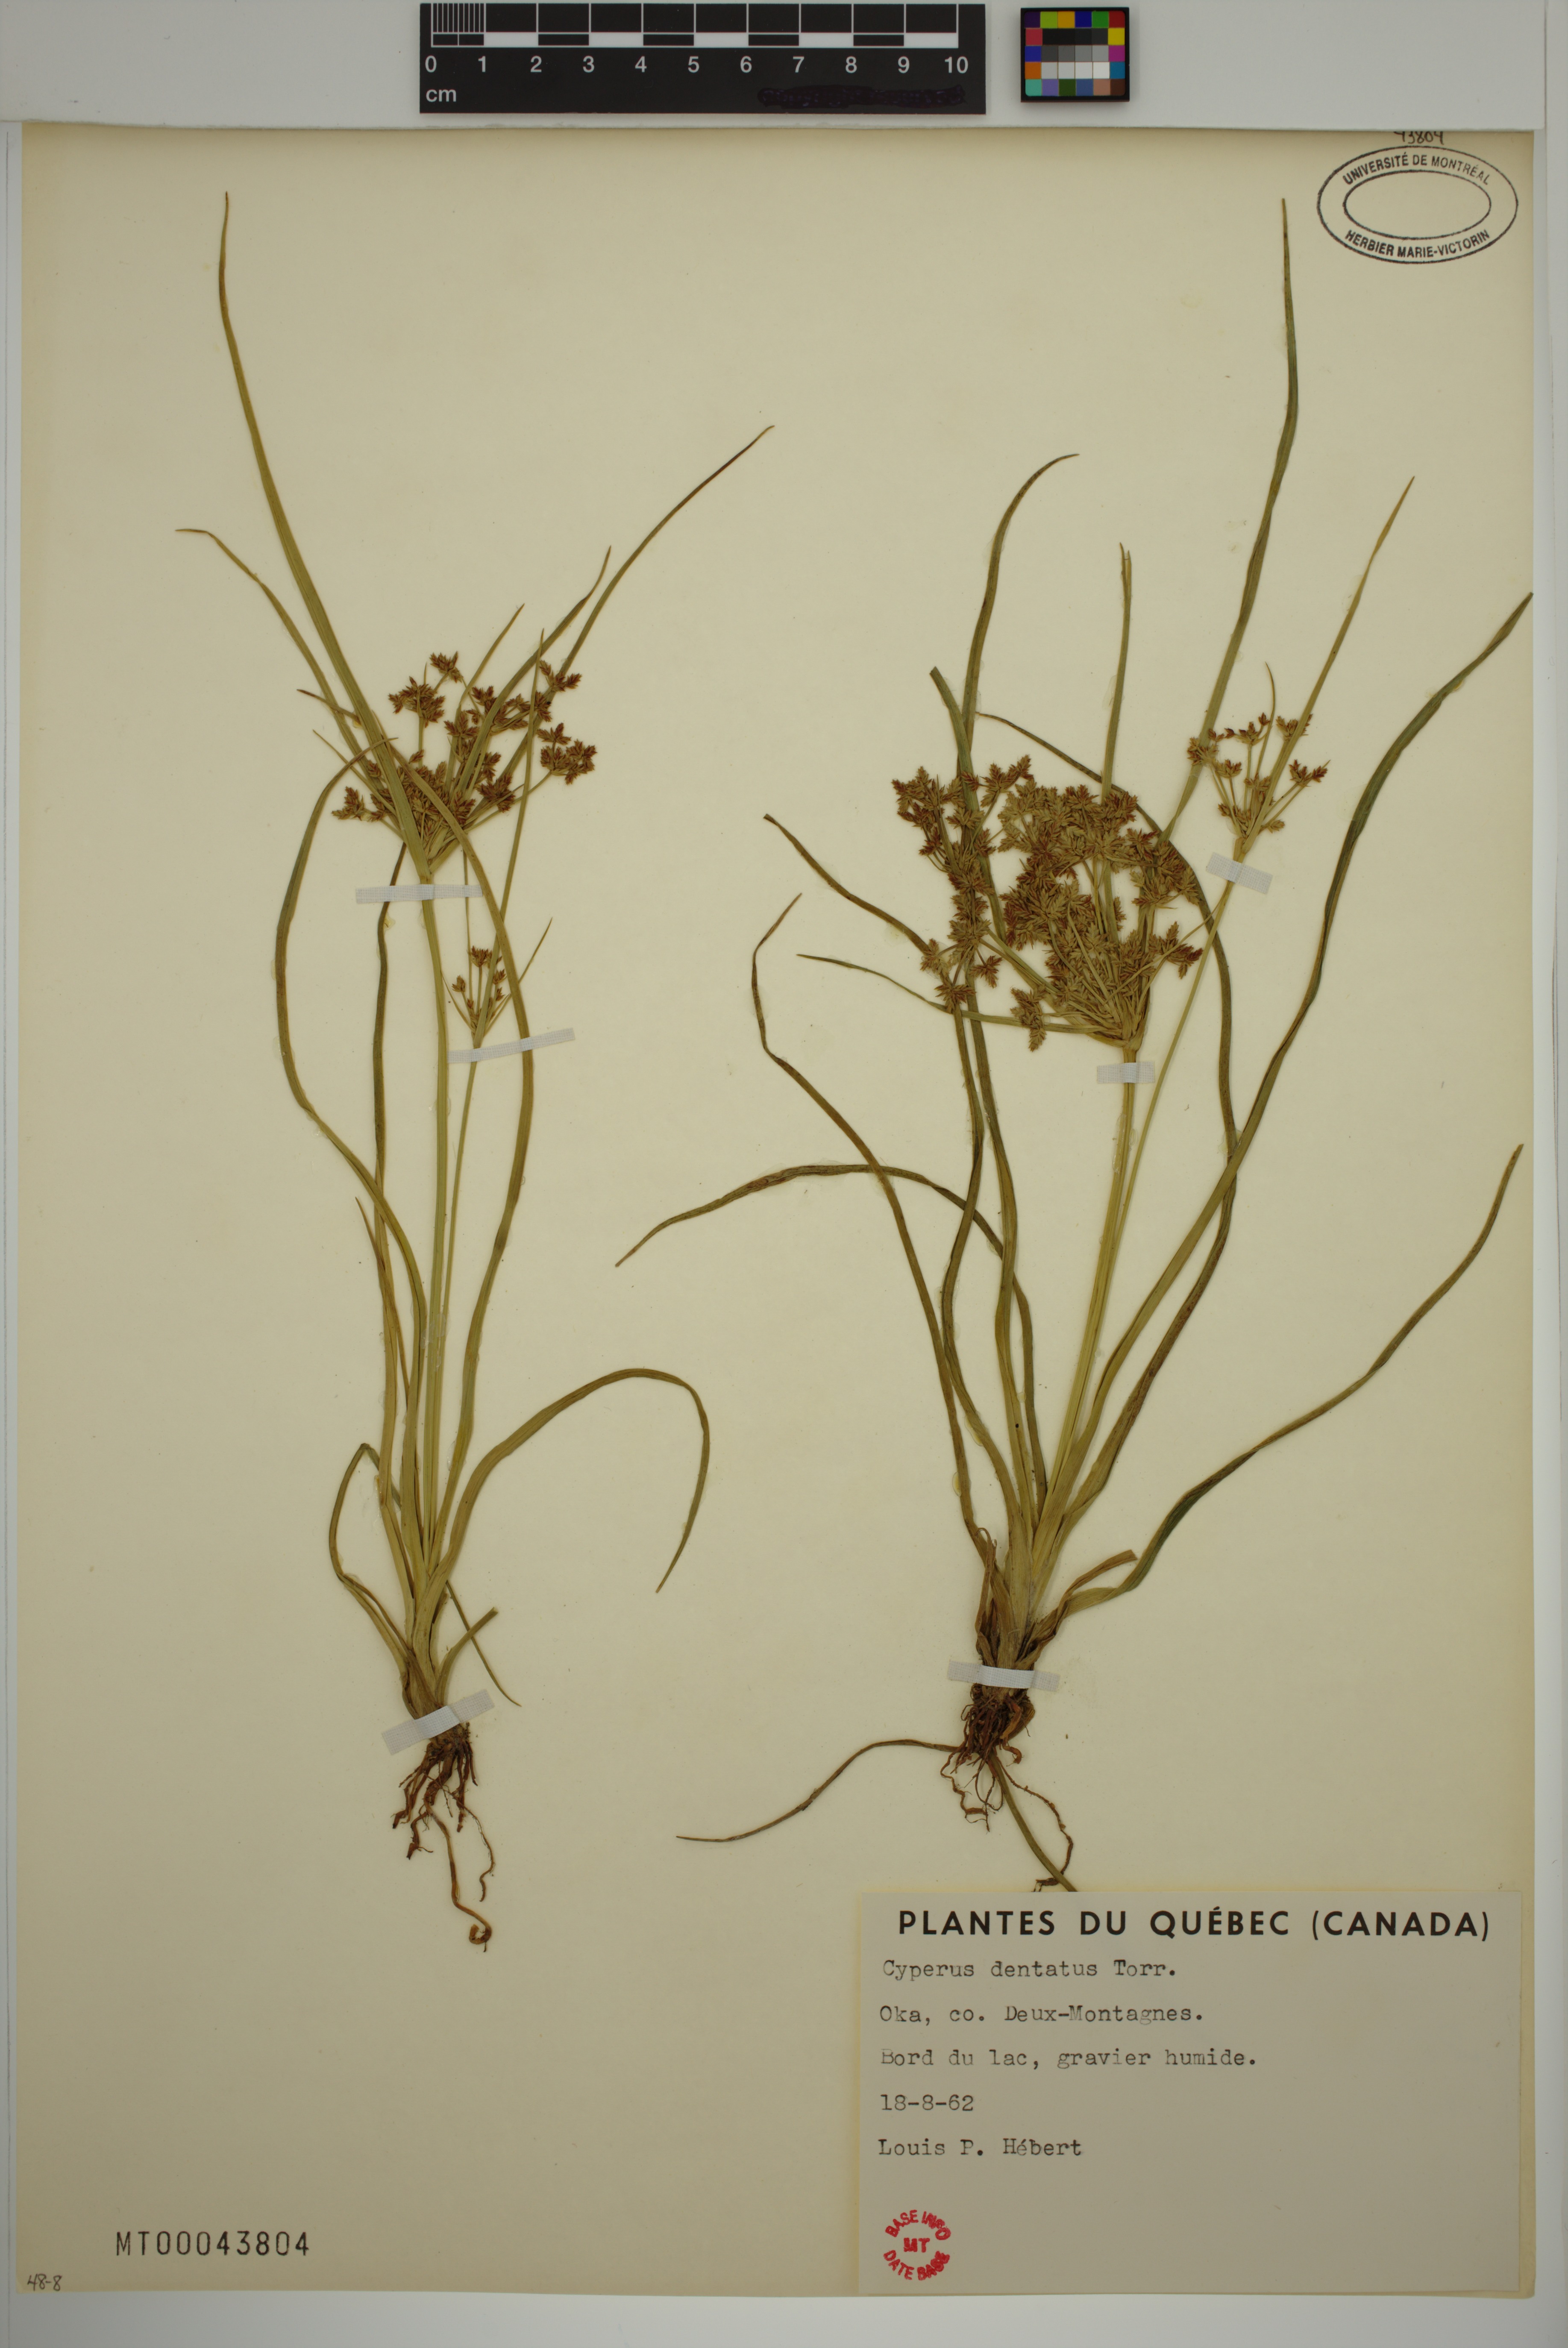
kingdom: Plantae
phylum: Tracheophyta
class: Liliopsida
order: Poales
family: Cyperaceae
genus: Cyperus
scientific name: Cyperus dentatus
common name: Dentate umbrella sedge
